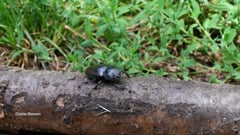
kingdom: Animalia
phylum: Arthropoda
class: Insecta
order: Coleoptera
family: Lucanidae
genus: Lucanus
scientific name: Lucanus cervus
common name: Stag beetle
